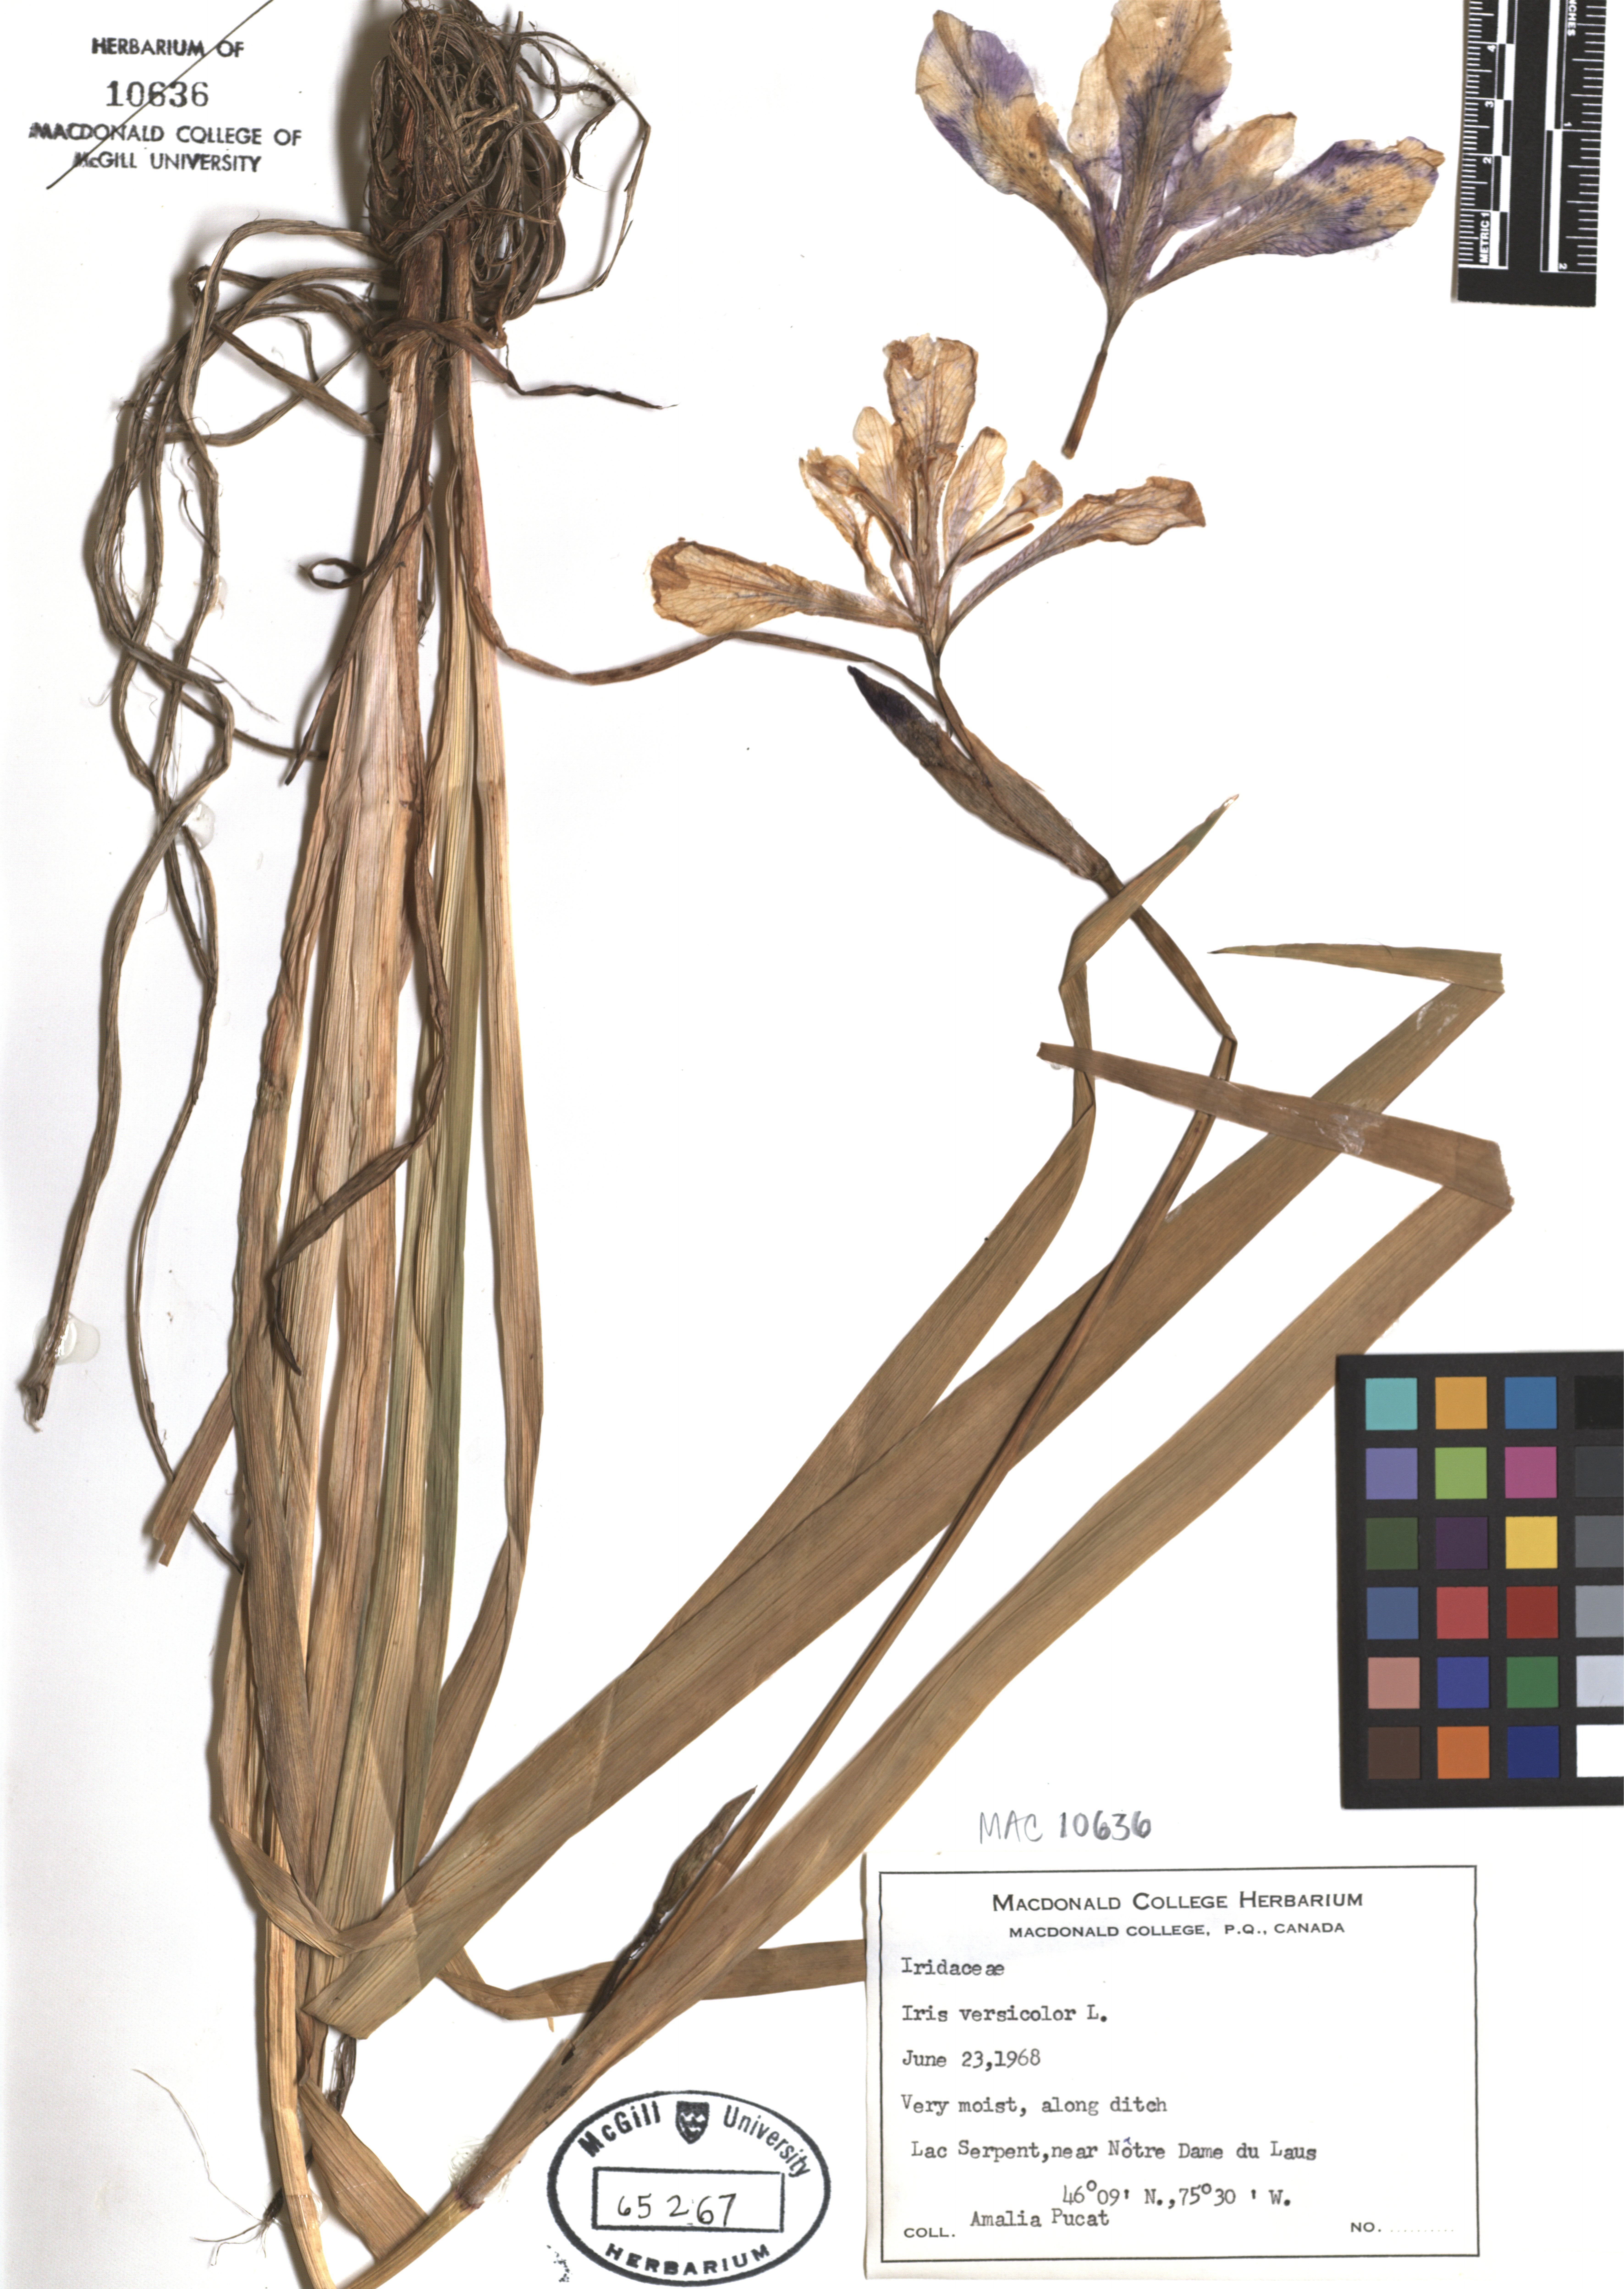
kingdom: Plantae
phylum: Tracheophyta
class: Liliopsida
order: Asparagales
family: Iridaceae
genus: Iris
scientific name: Iris versicolor
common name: Purple iris
